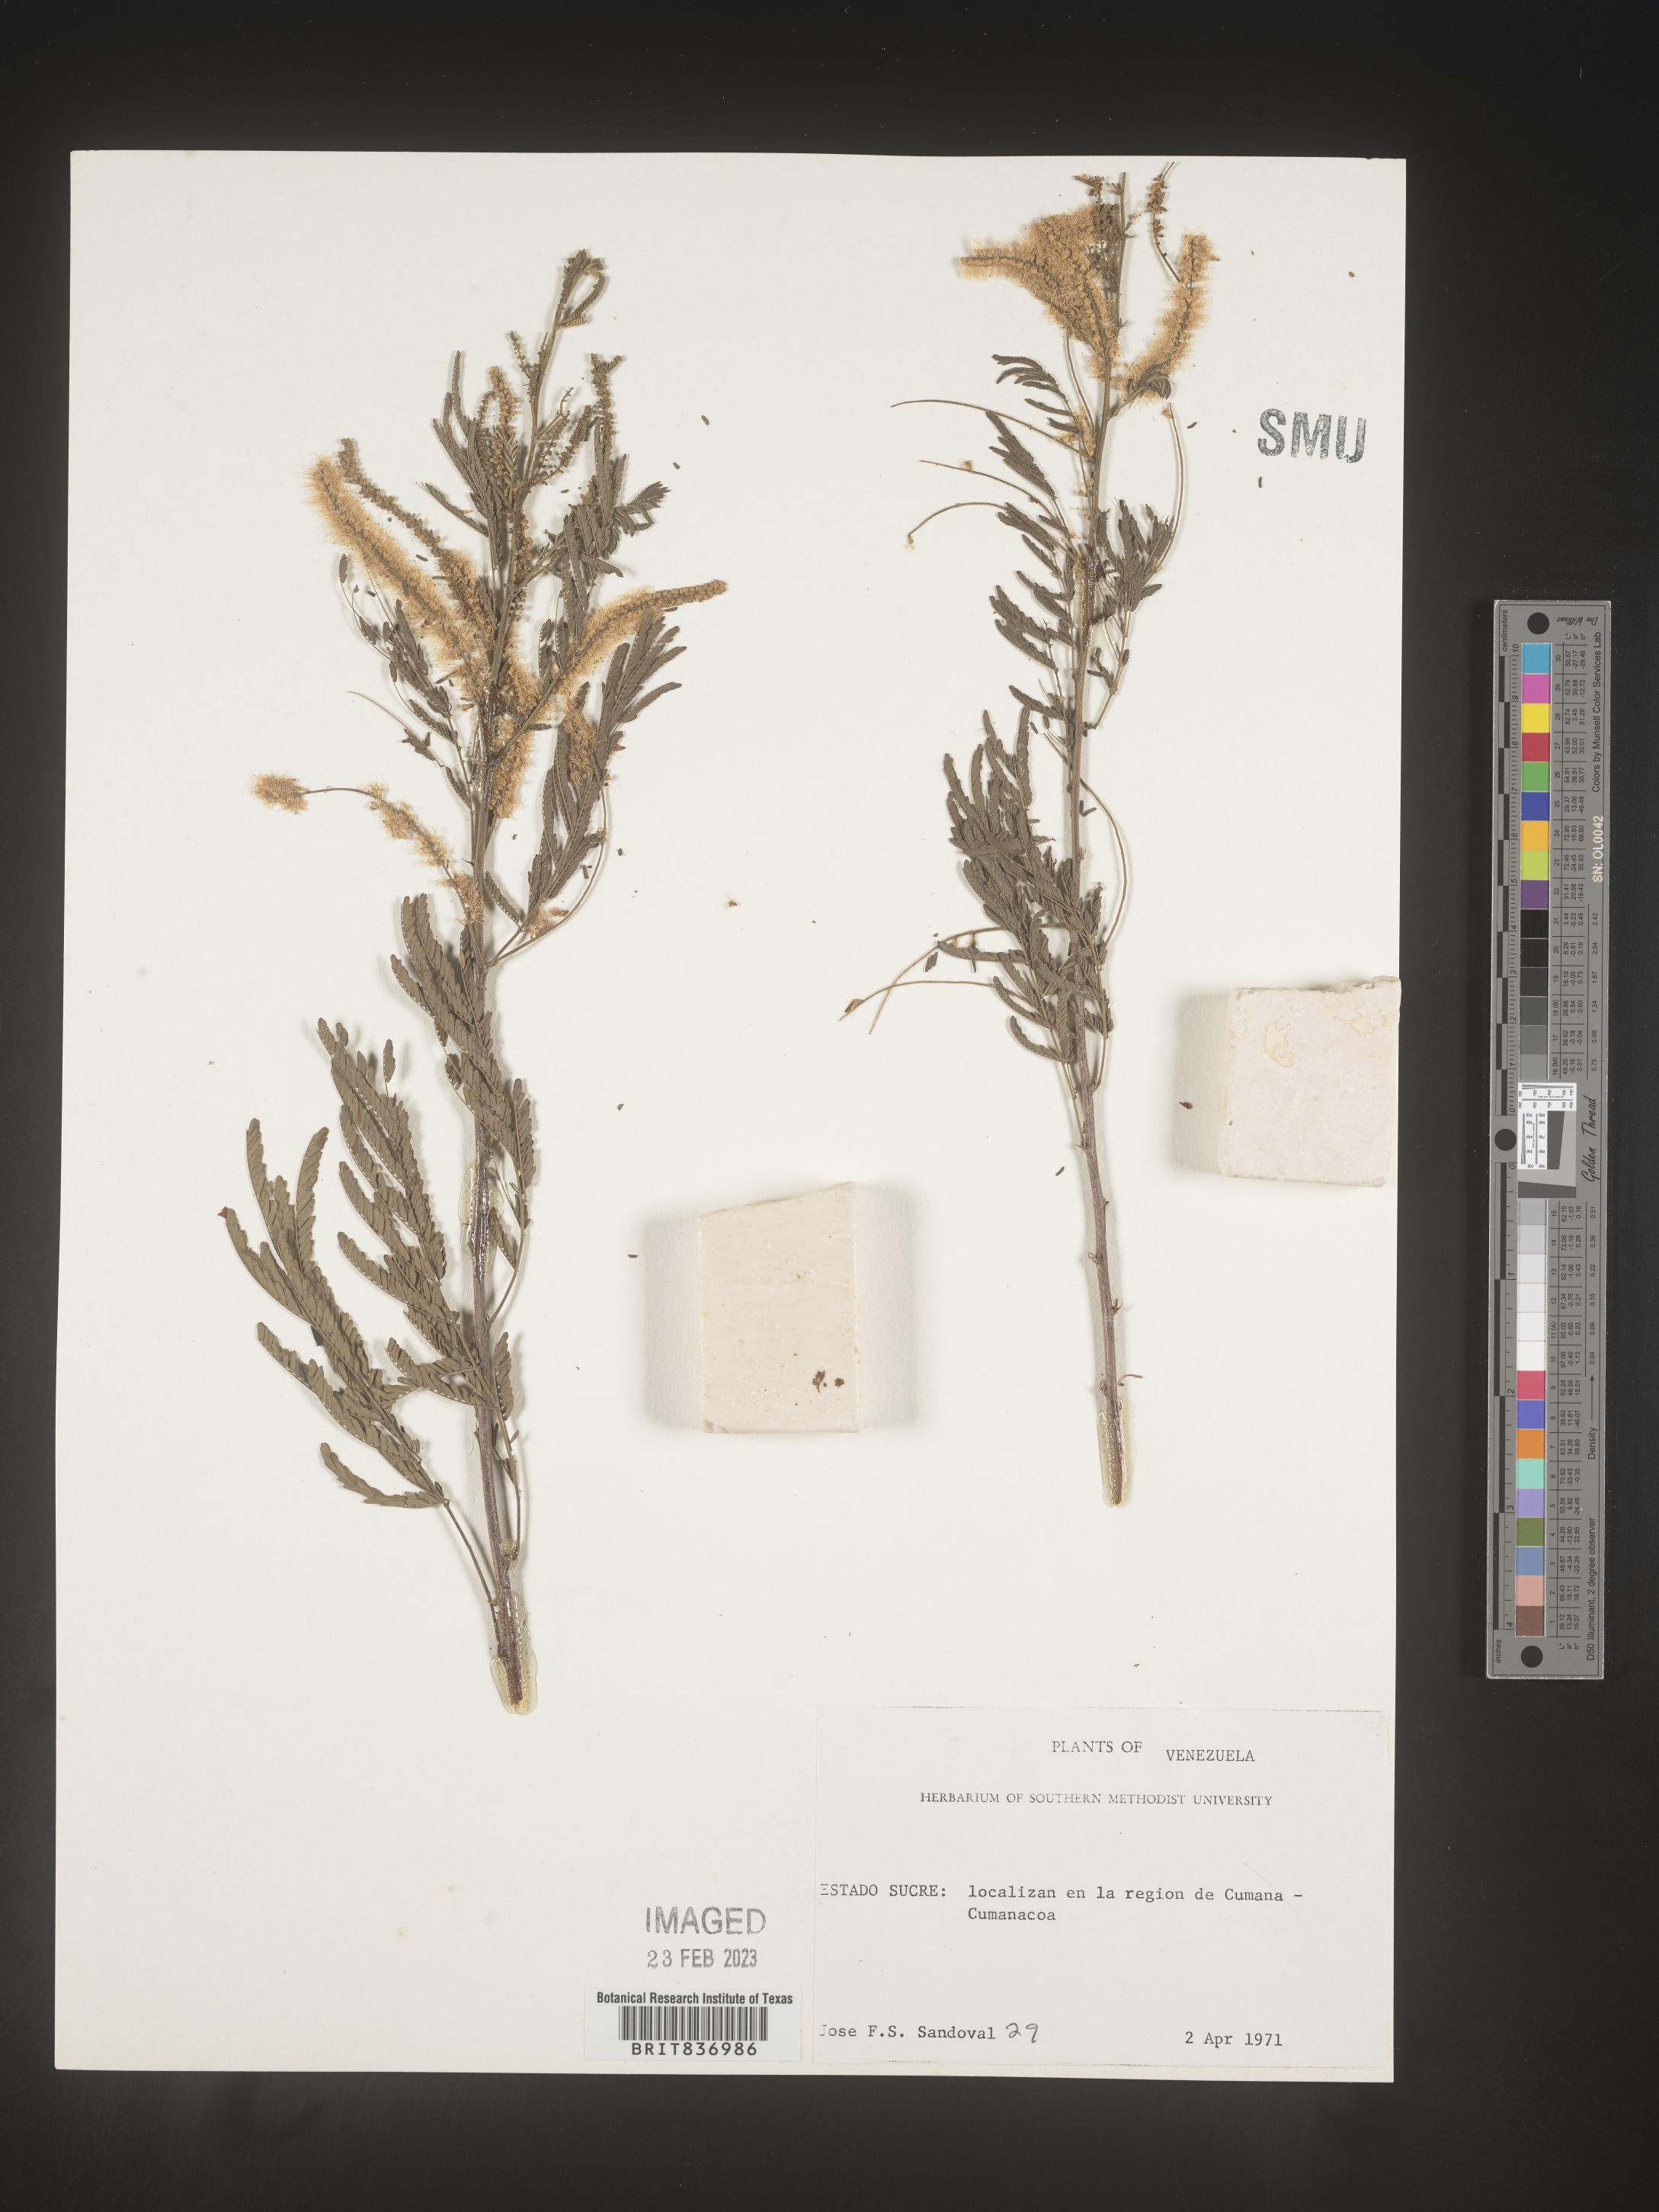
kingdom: Plantae
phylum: Tracheophyta
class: Magnoliopsida
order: Fabales
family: Fabaceae
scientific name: Fabaceae
